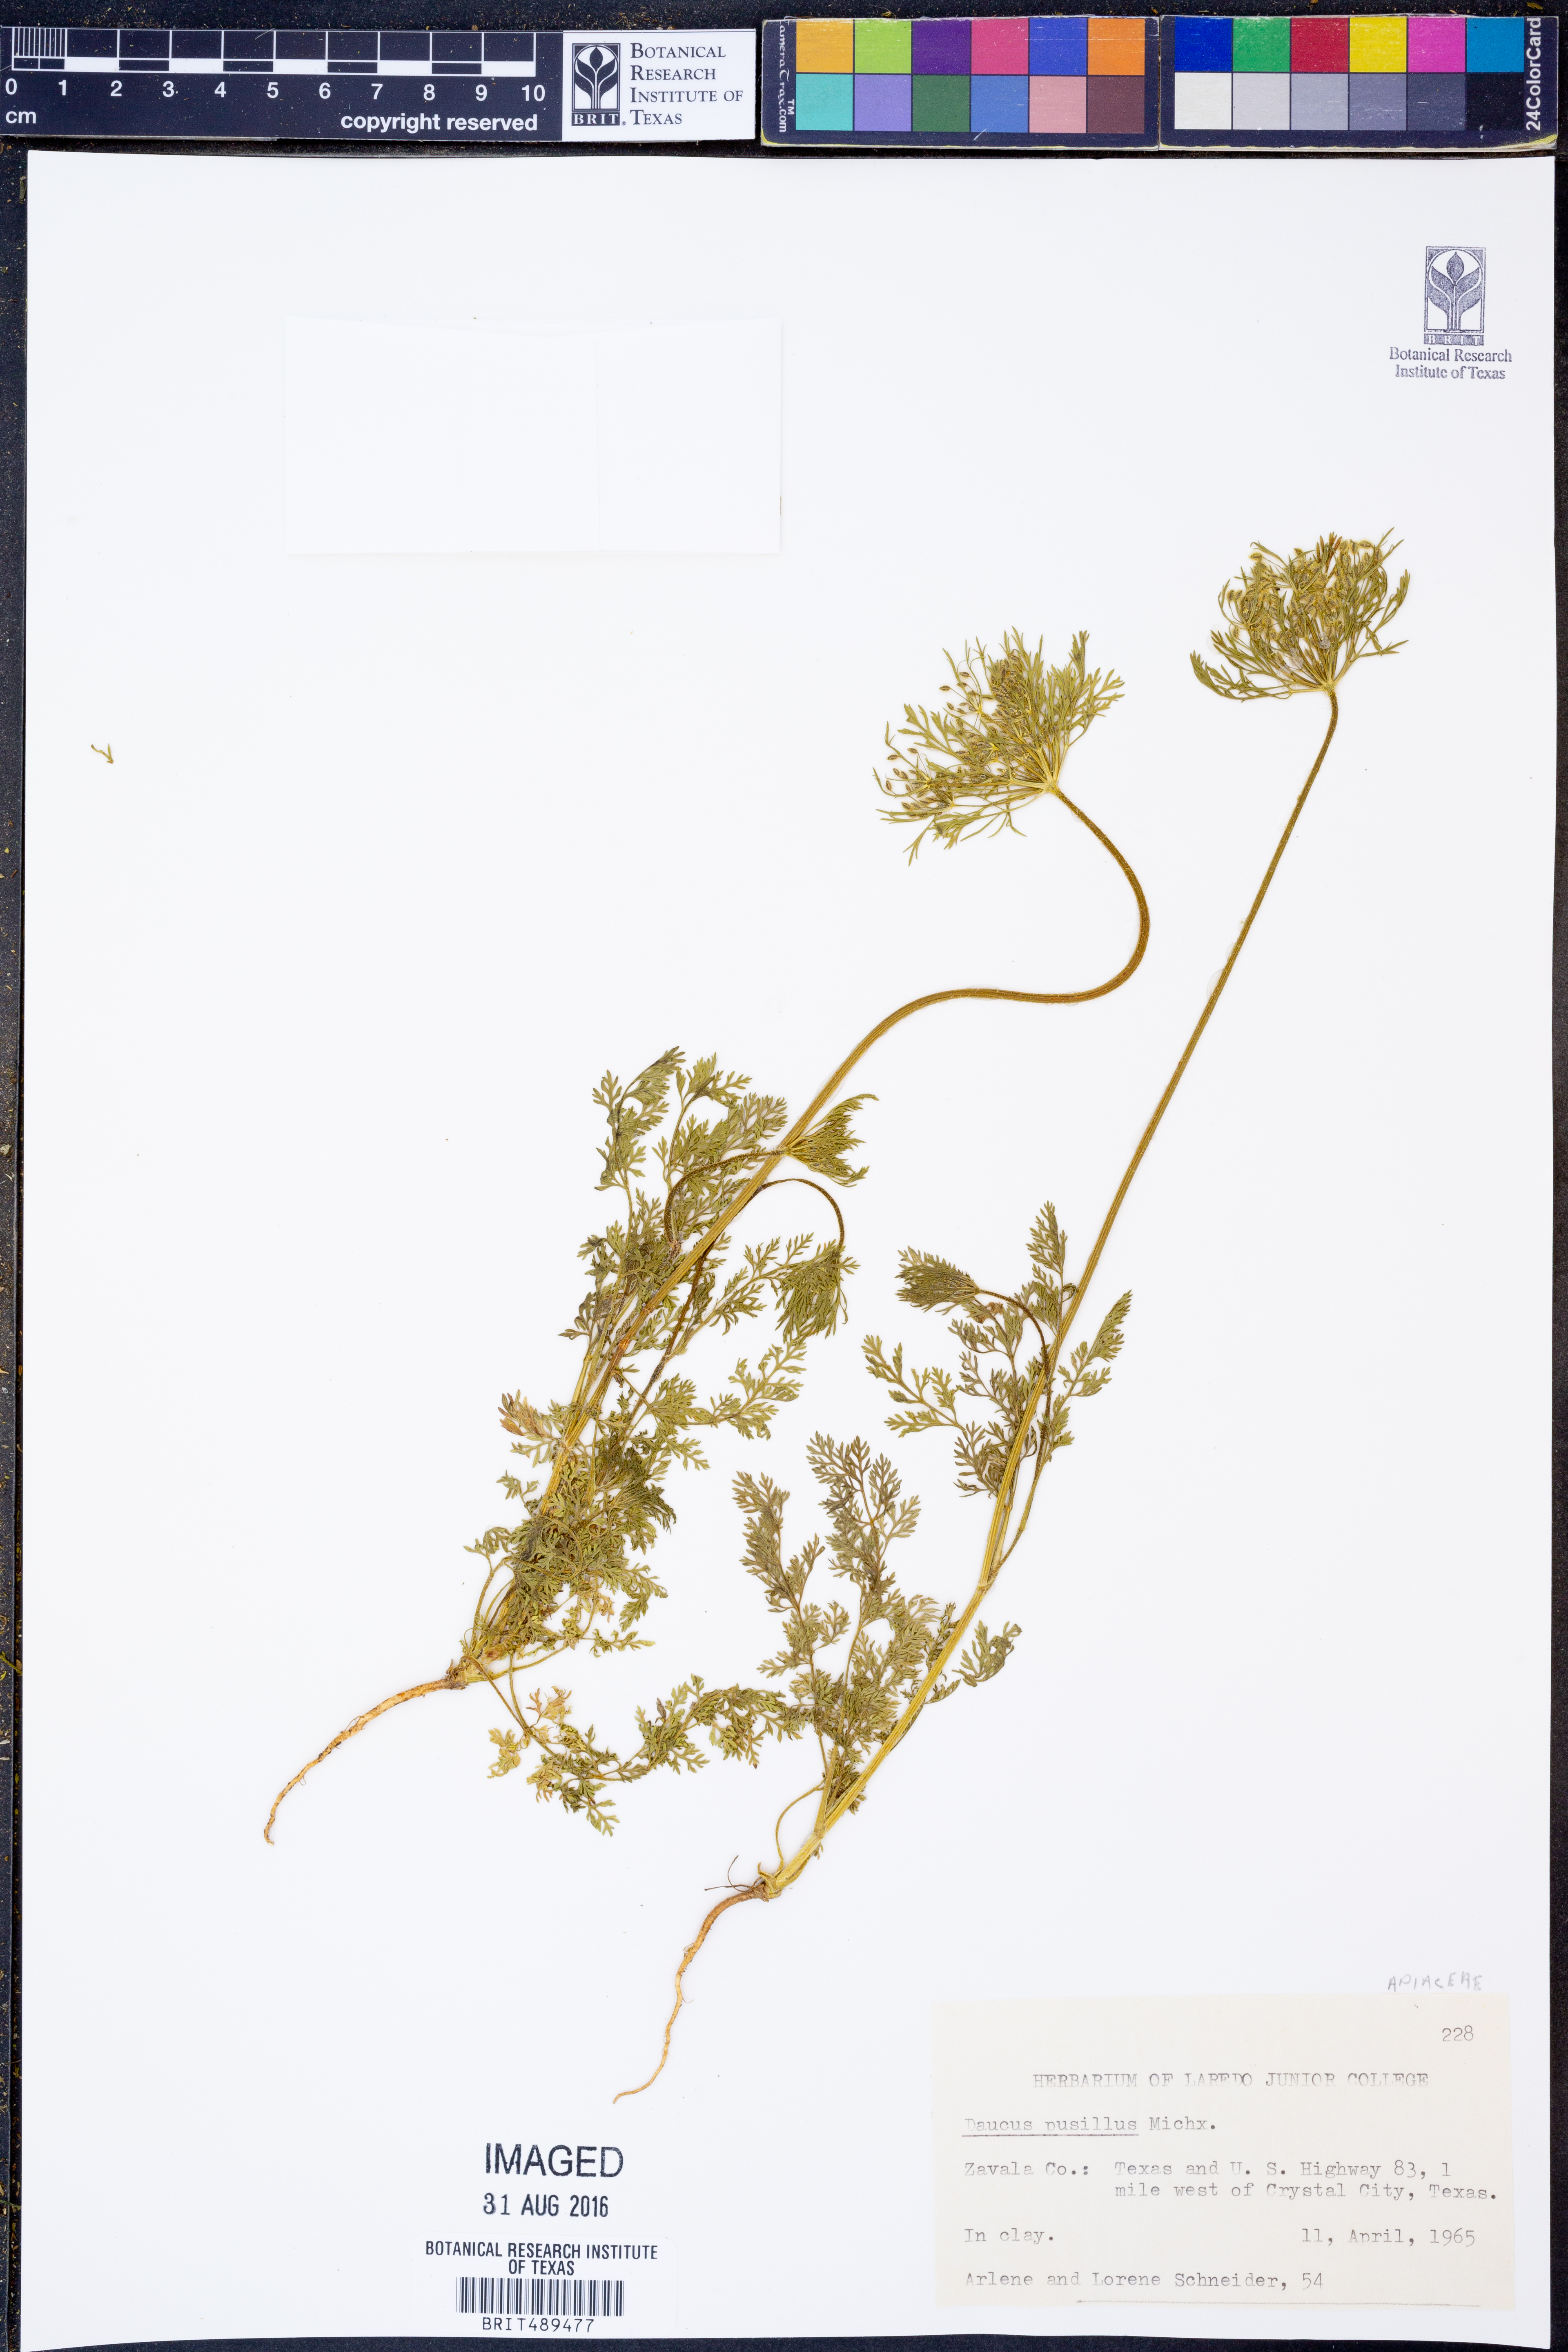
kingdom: Plantae
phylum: Tracheophyta
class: Magnoliopsida
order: Apiales
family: Apiaceae
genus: Daucus
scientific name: Daucus pusillus
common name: Southwest wild carrot
